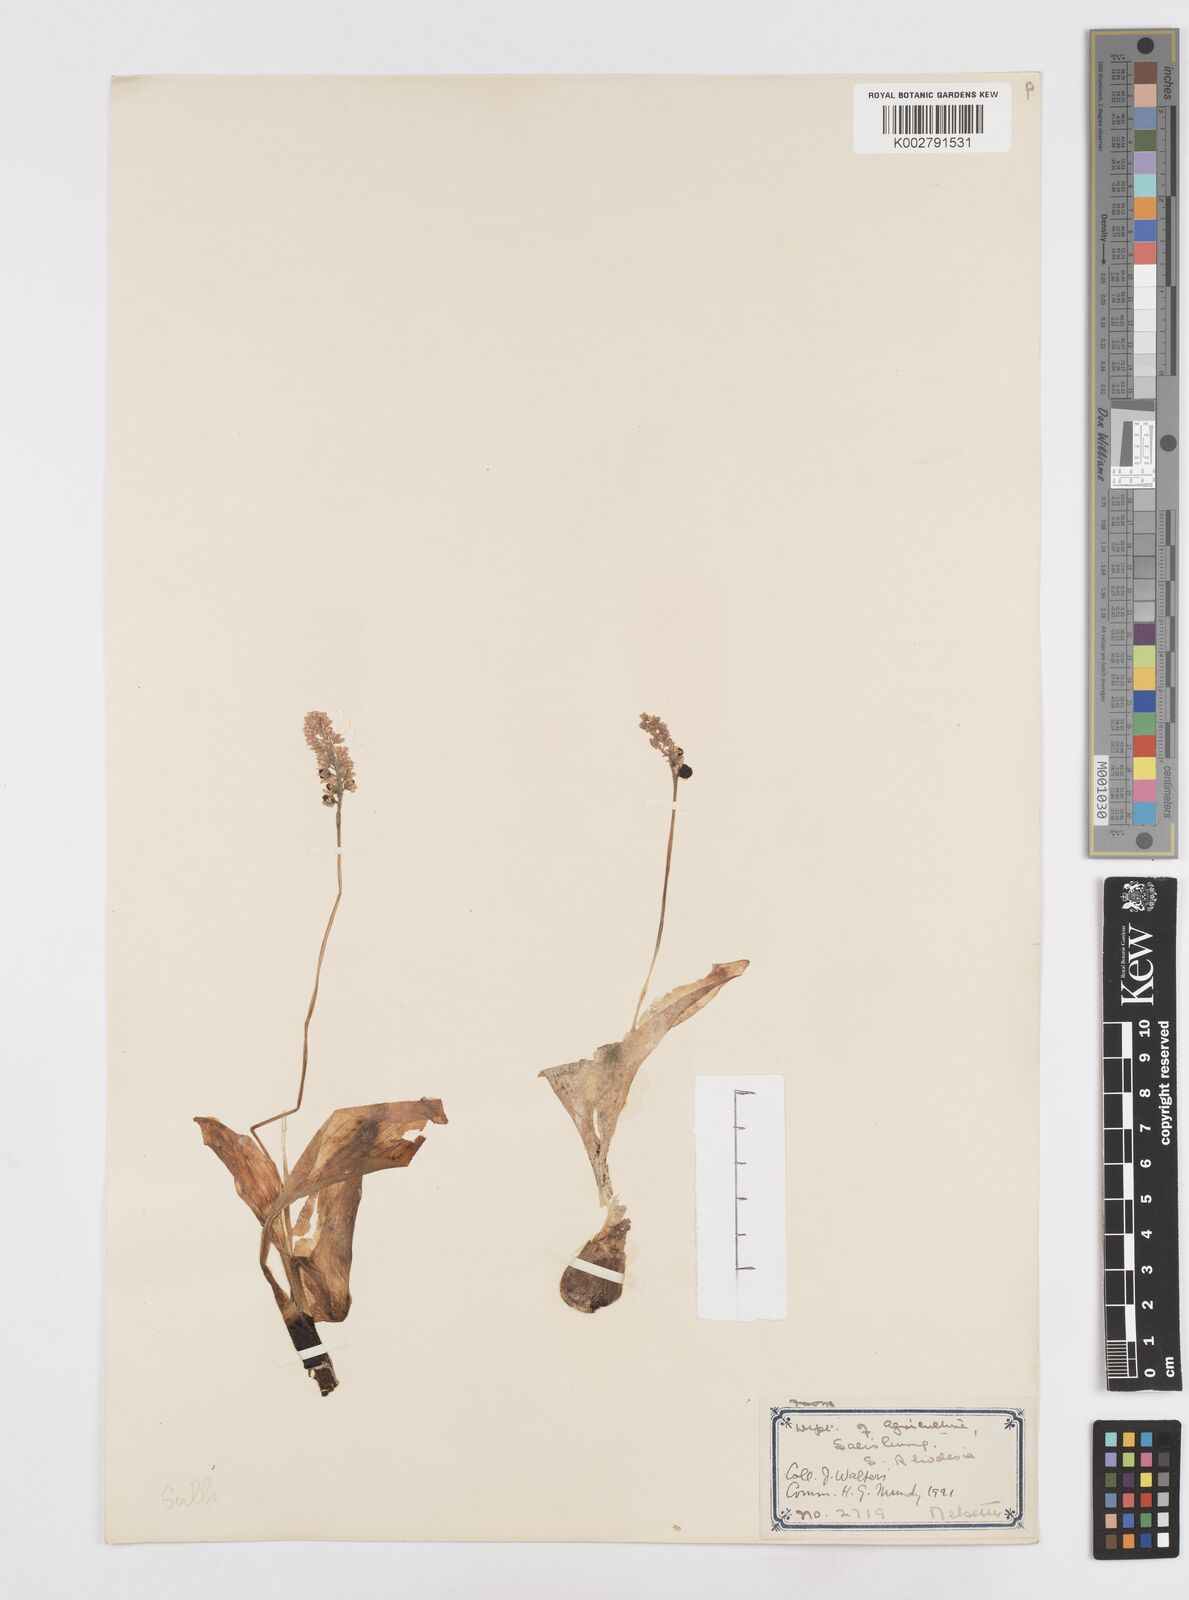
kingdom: Plantae
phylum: Tracheophyta
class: Liliopsida
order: Asparagales
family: Asparagaceae
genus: Scilla
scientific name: Scilla
